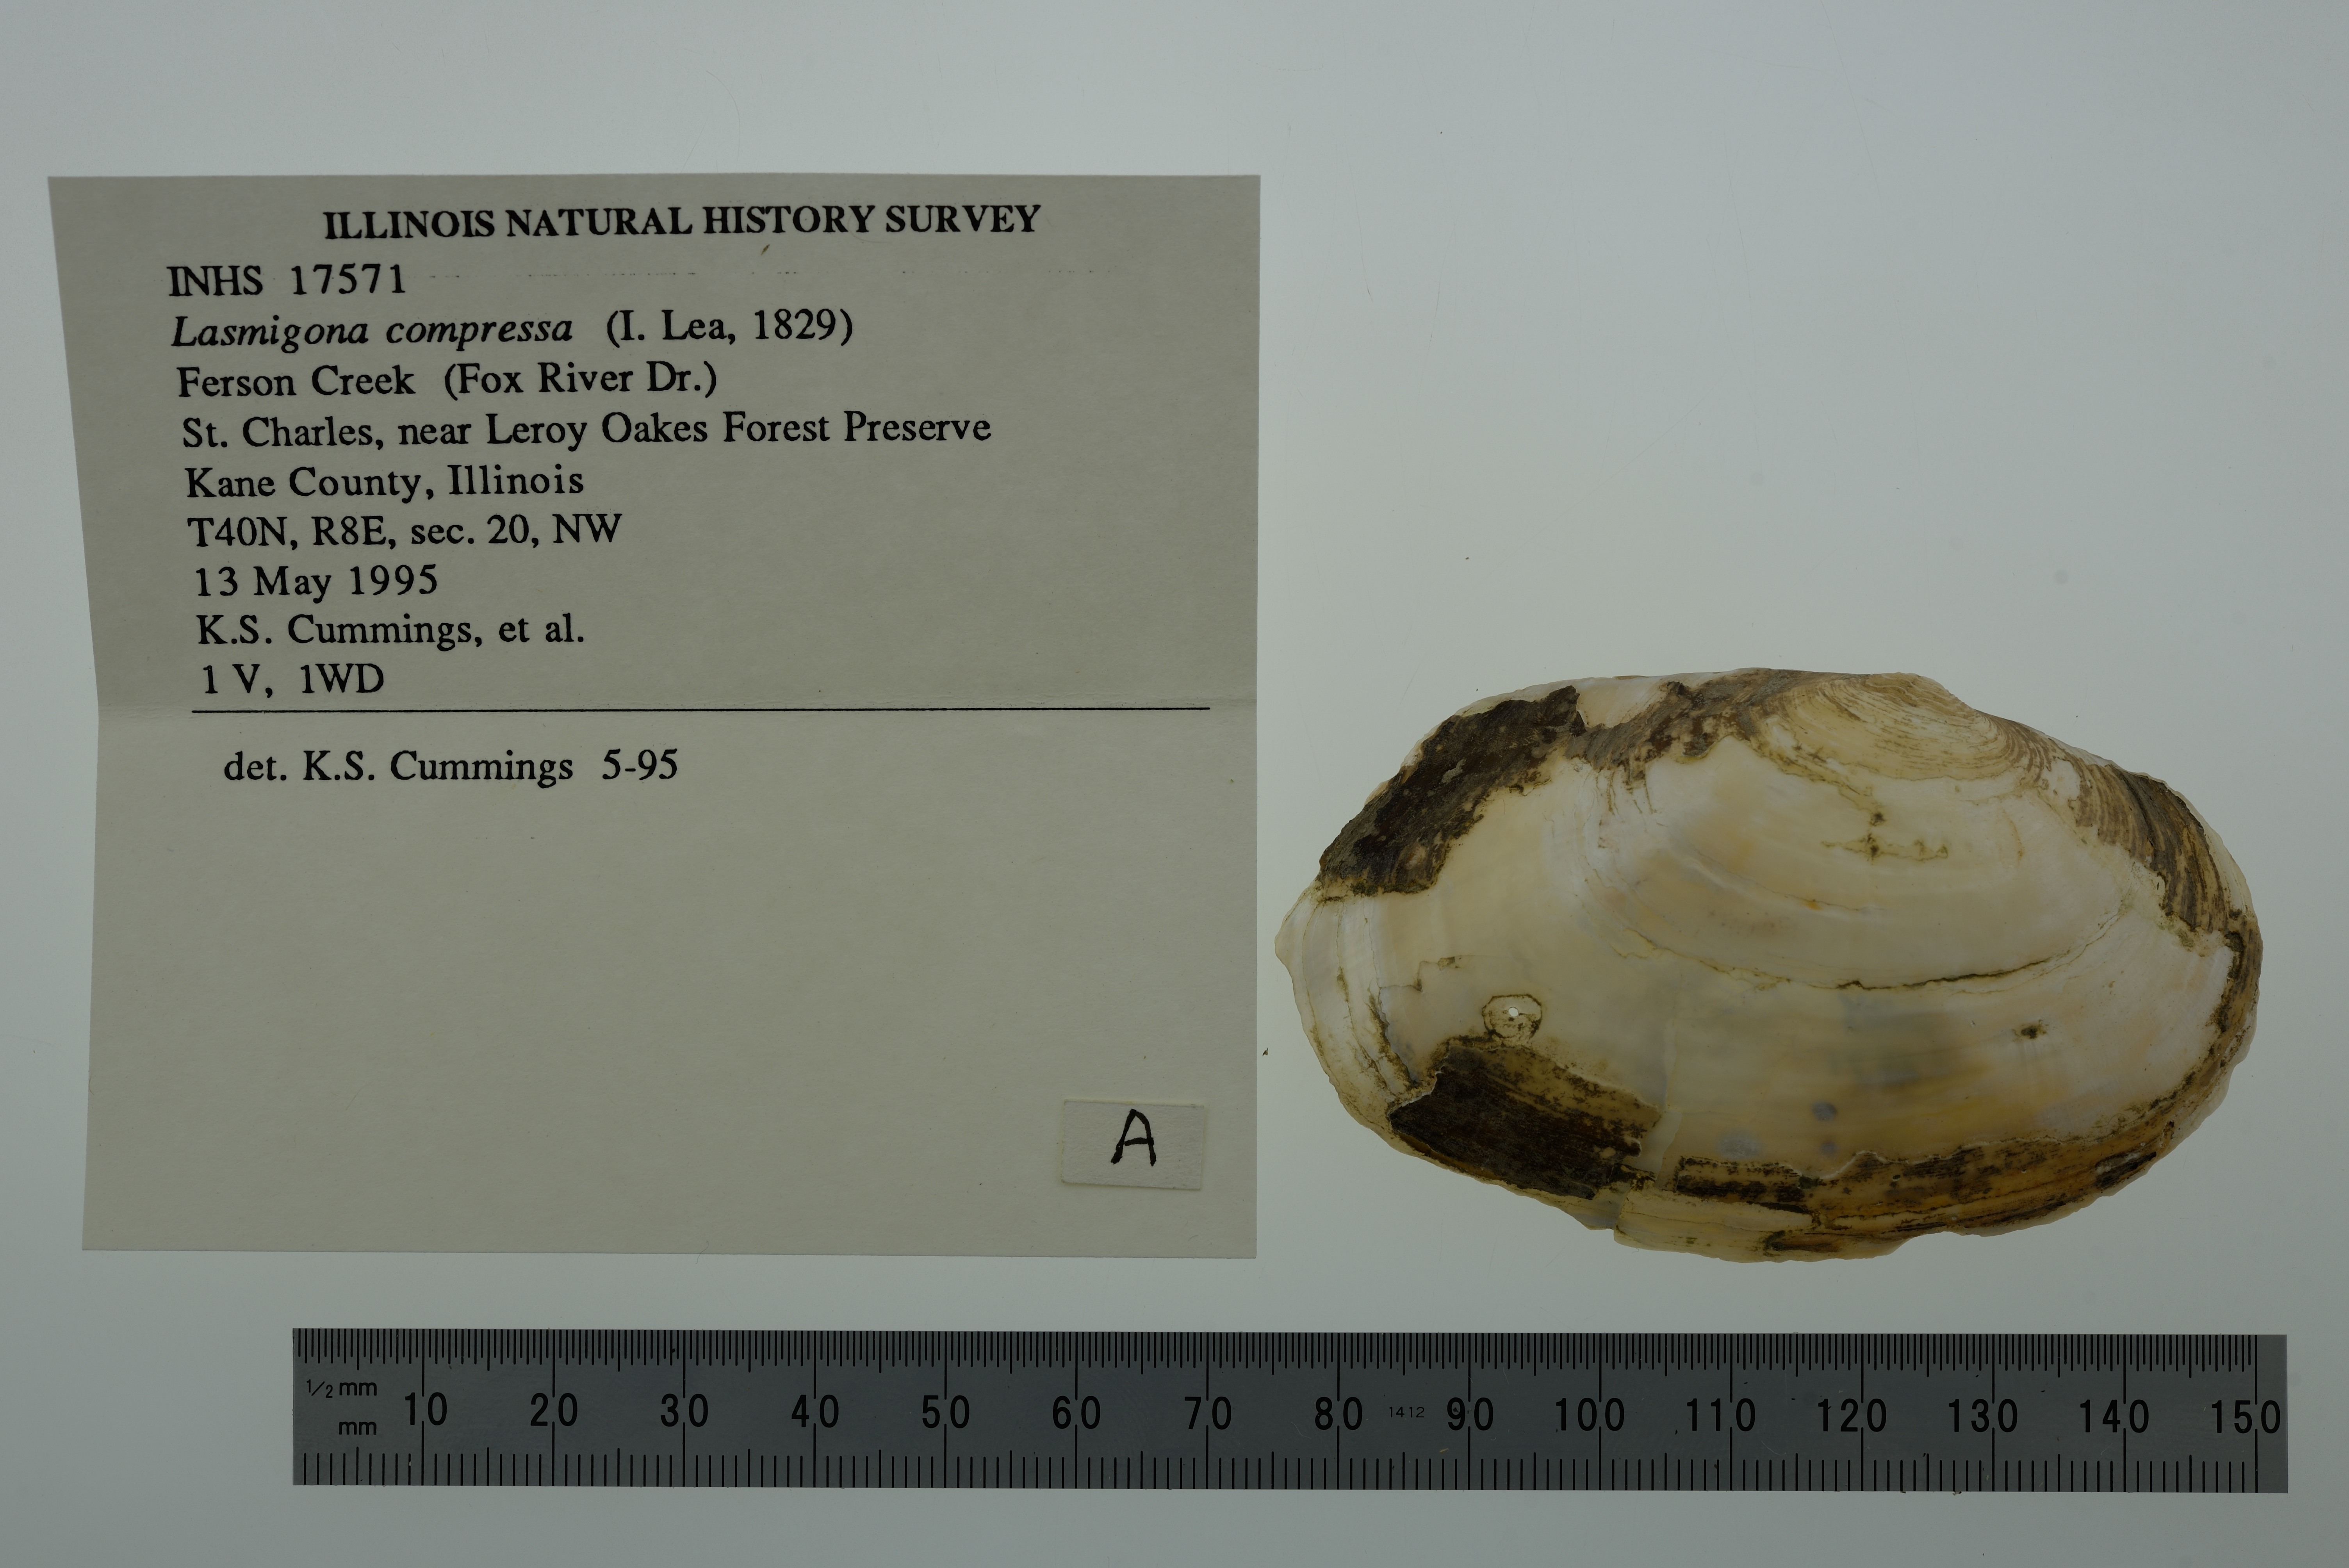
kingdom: Animalia
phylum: Mollusca
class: Bivalvia
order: Unionida
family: Unionidae
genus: Lasmigona
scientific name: Lasmigona compressa
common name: Creek heelsplitter
